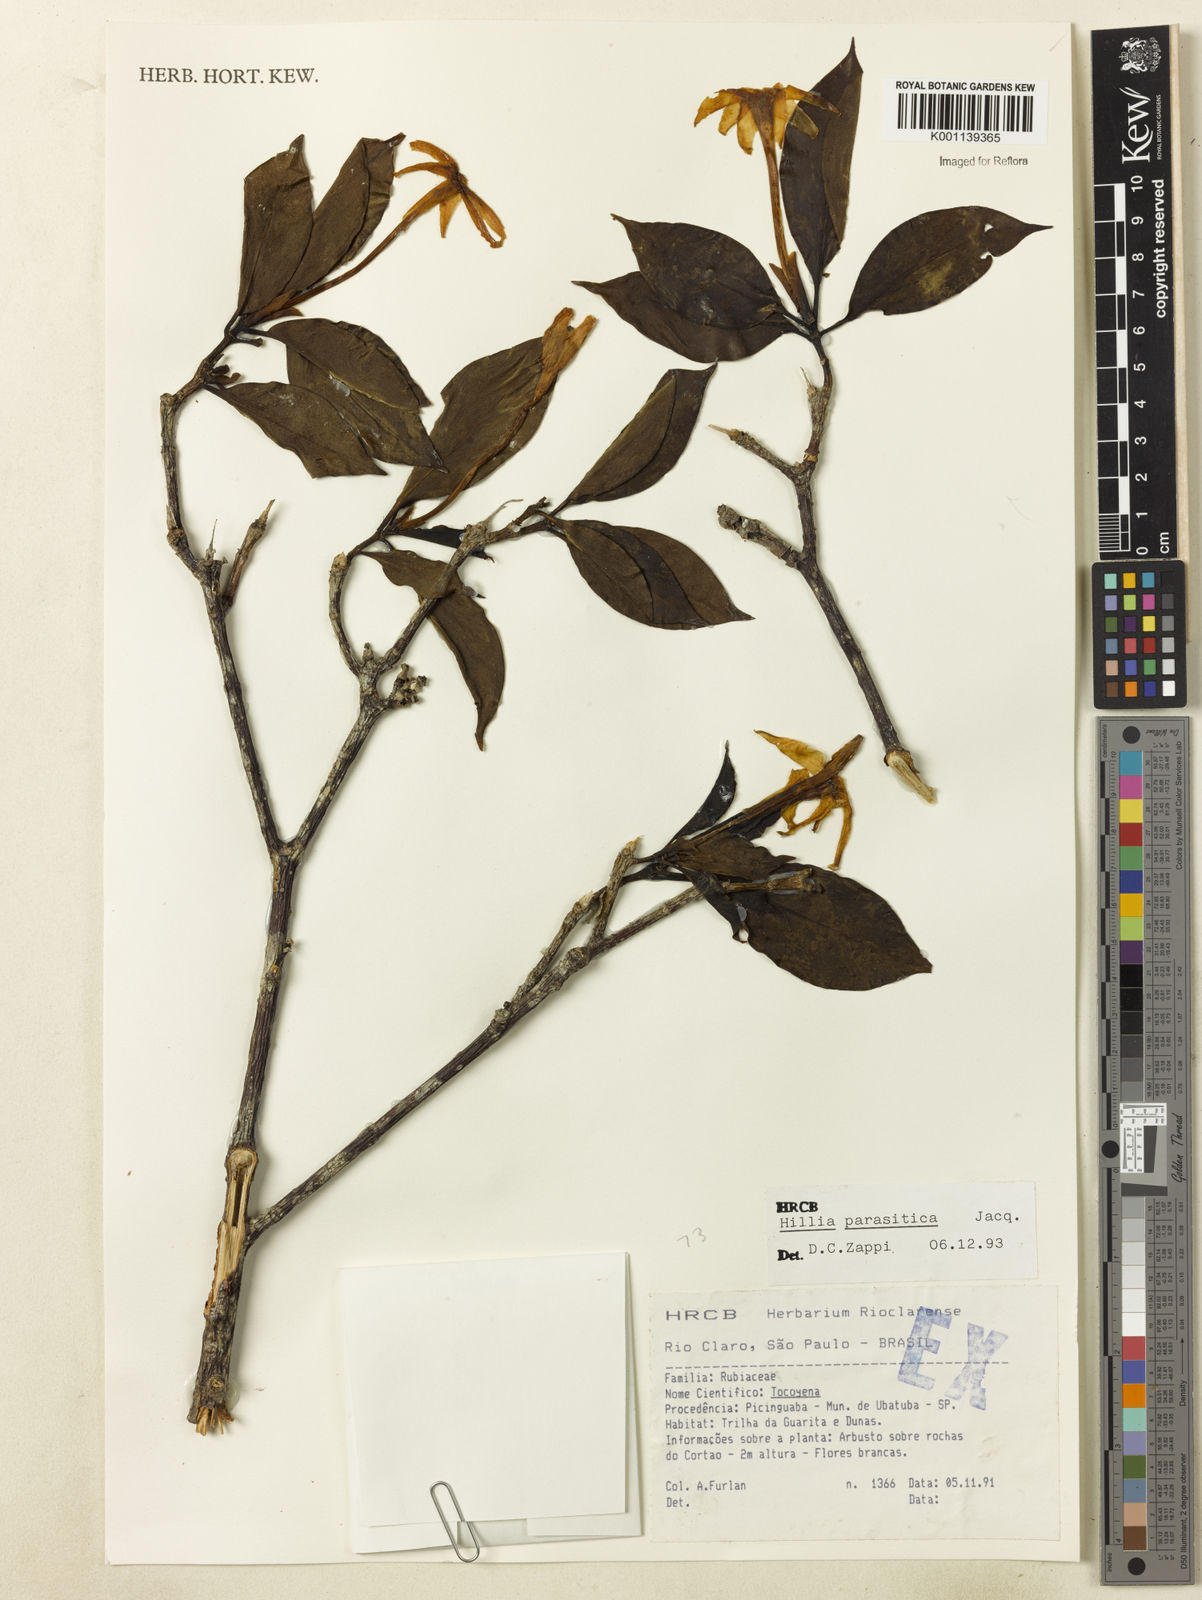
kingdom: Plantae
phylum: Tracheophyta
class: Magnoliopsida
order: Gentianales
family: Rubiaceae
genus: Hillia
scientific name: Hillia parasitica
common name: Morning star
